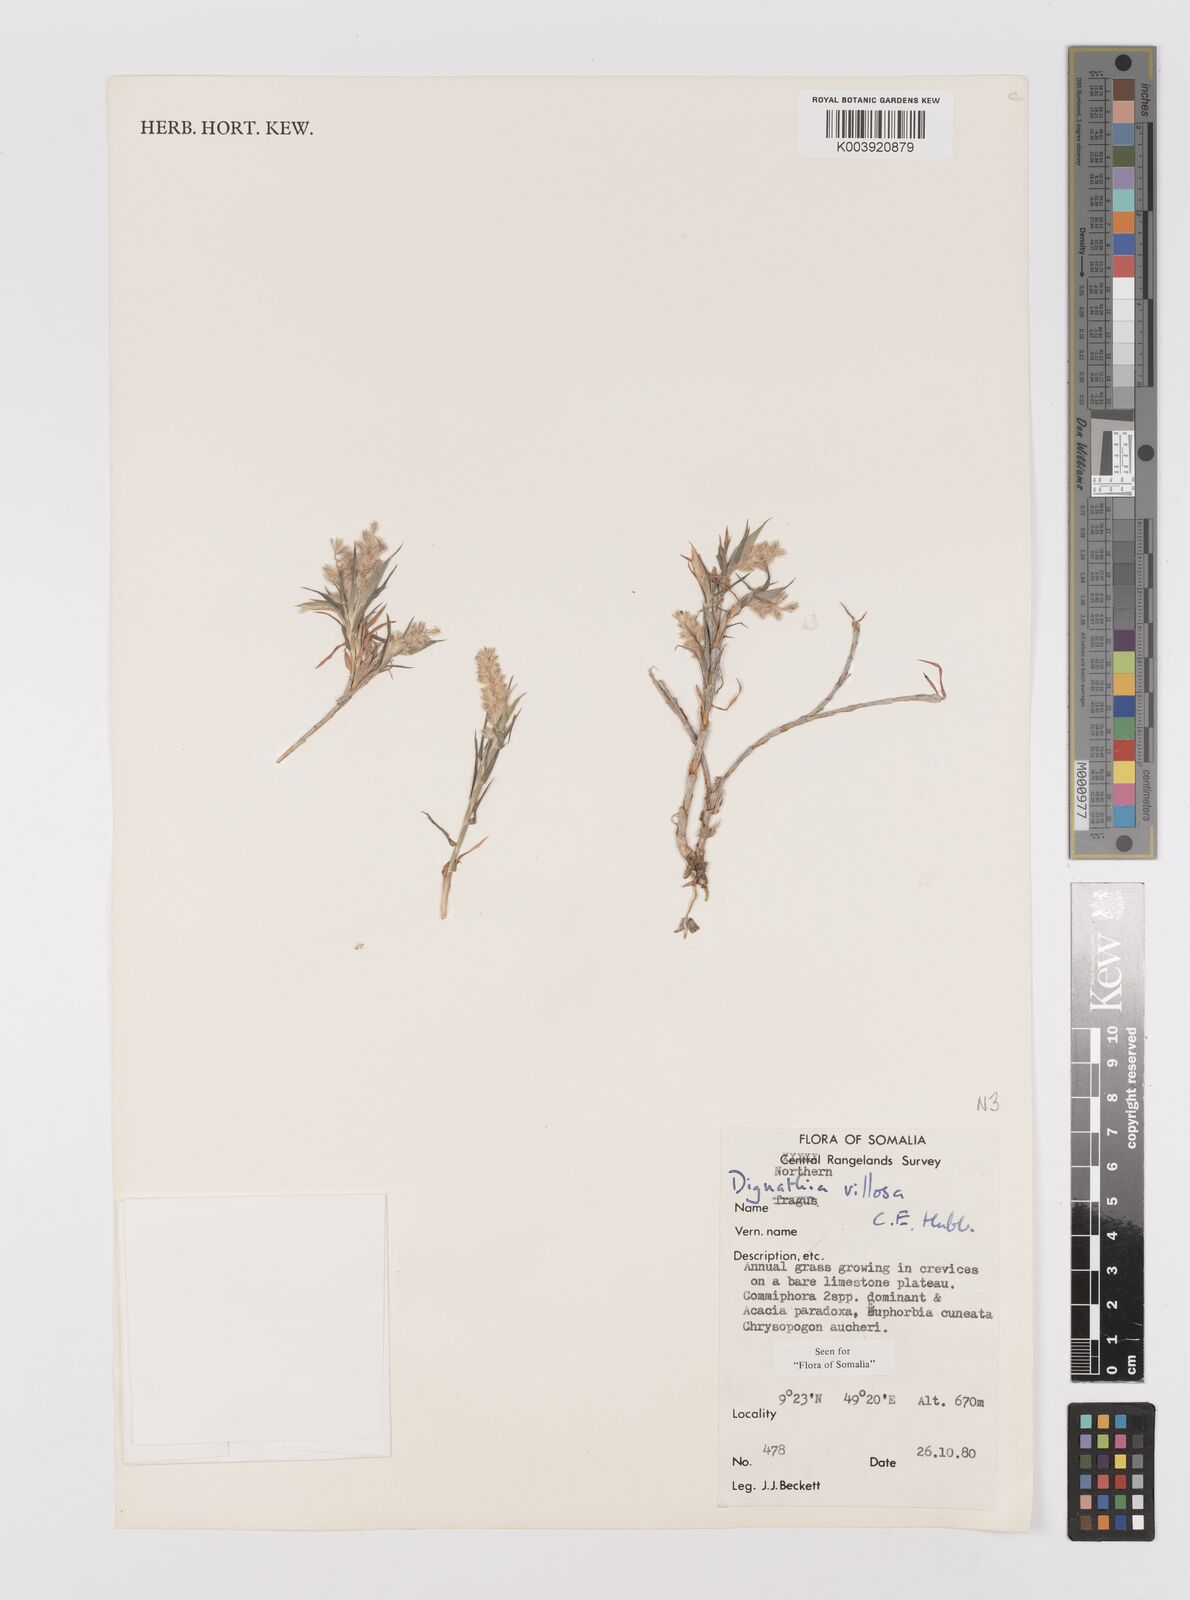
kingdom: Plantae
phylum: Tracheophyta
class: Liliopsida
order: Poales
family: Poaceae
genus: Dignathia
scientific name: Dignathia villosa
